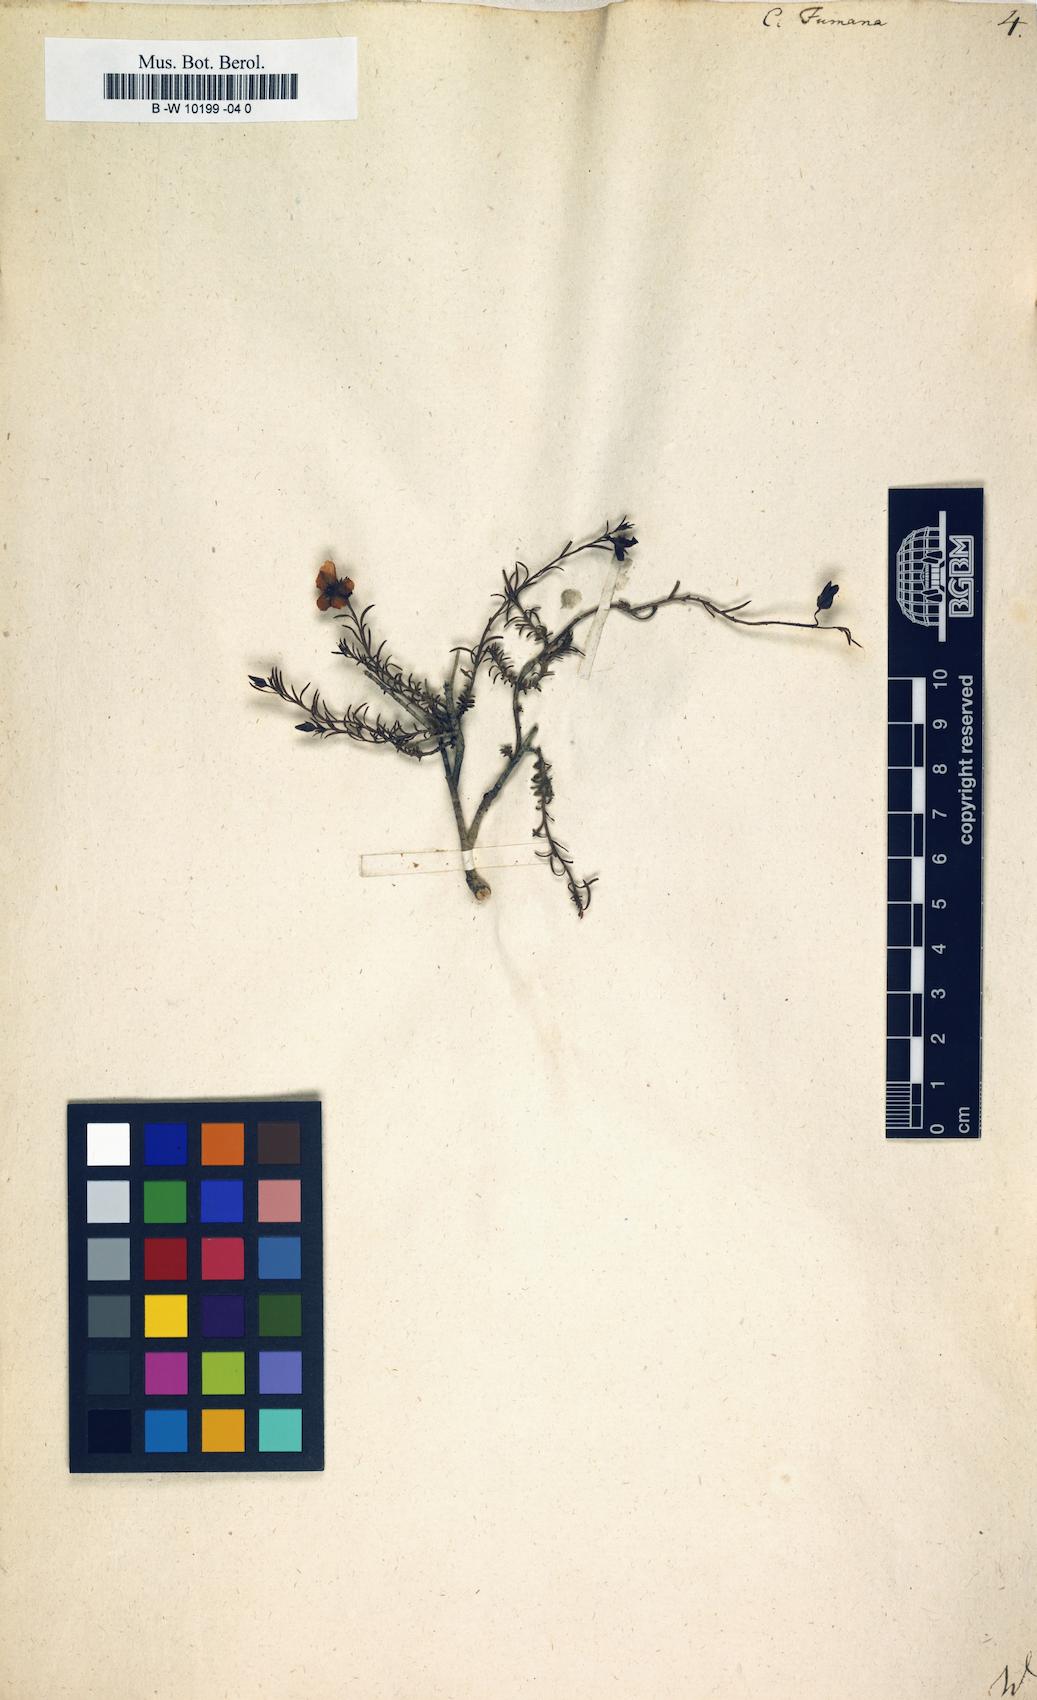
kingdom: Plantae
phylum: Tracheophyta
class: Magnoliopsida
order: Malvales
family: Cistaceae
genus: Fumana
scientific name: Fumana procumbens
